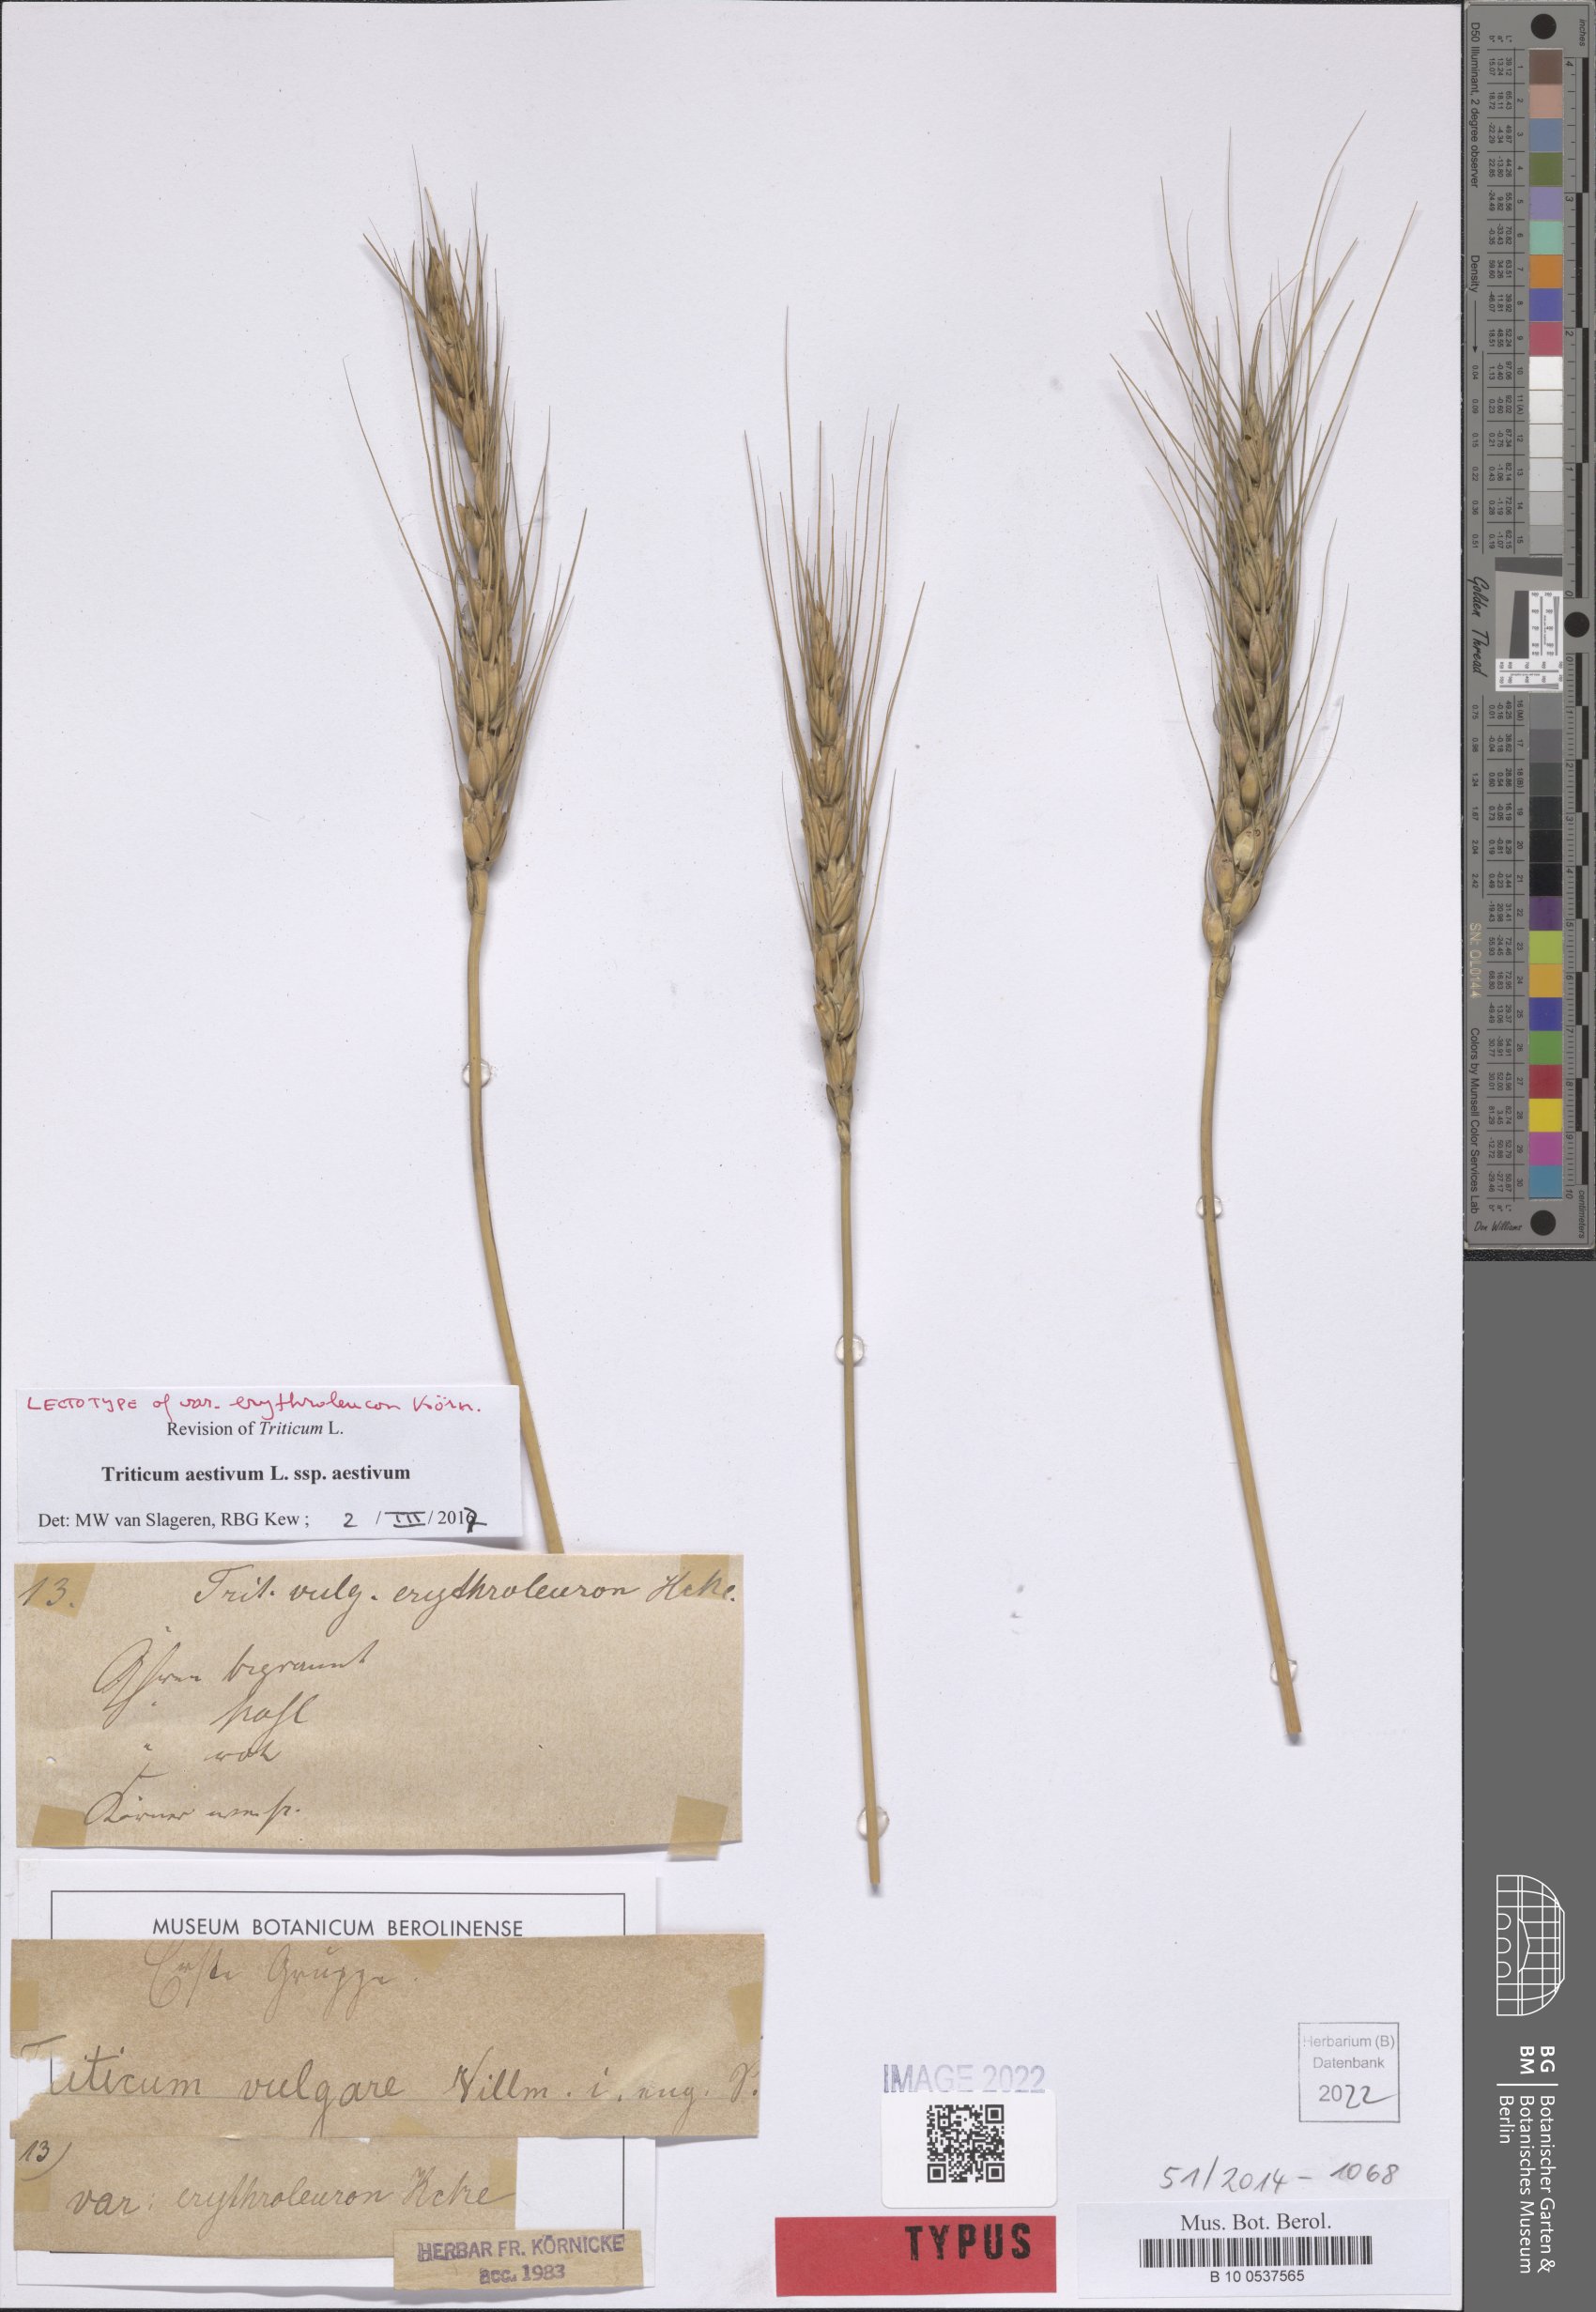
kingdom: Plantae
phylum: Tracheophyta
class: Liliopsida
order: Poales
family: Poaceae
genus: Triticum
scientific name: Triticum aestivum
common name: Common wheat
